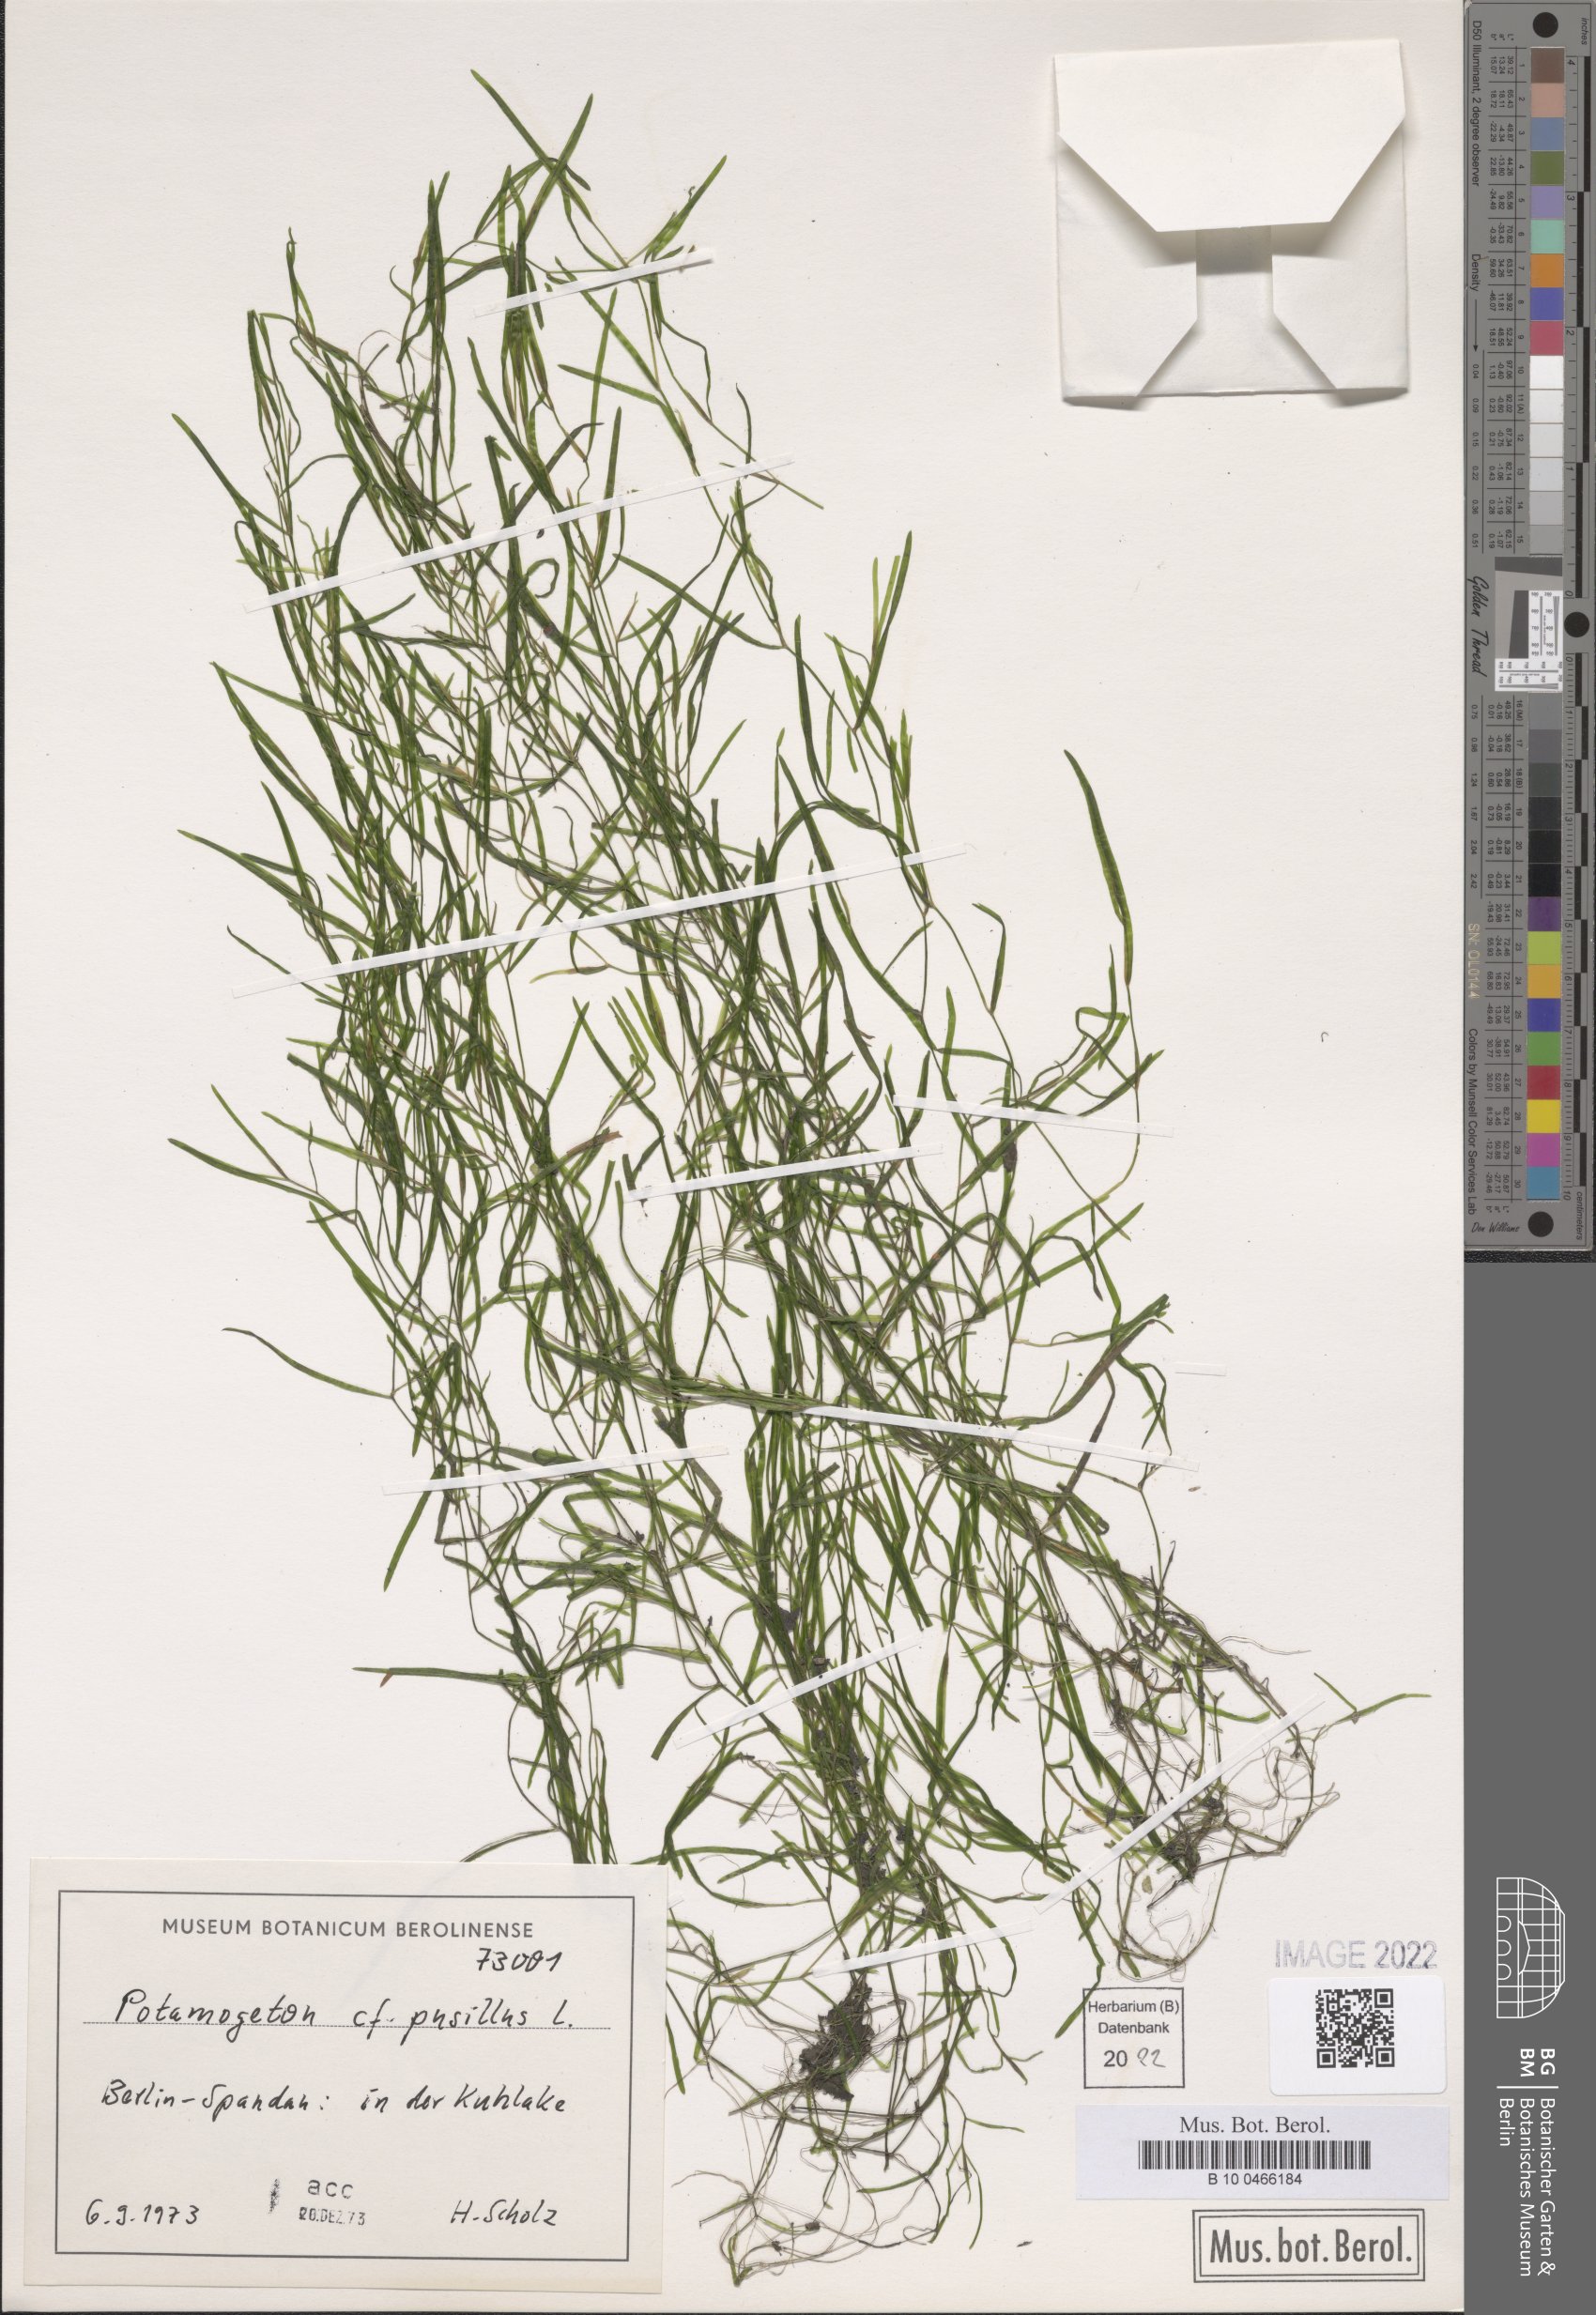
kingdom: Plantae
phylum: Tracheophyta
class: Liliopsida
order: Alismatales
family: Potamogetonaceae
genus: Potamogeton
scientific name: Potamogeton pusillus
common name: Lesser pondweed
